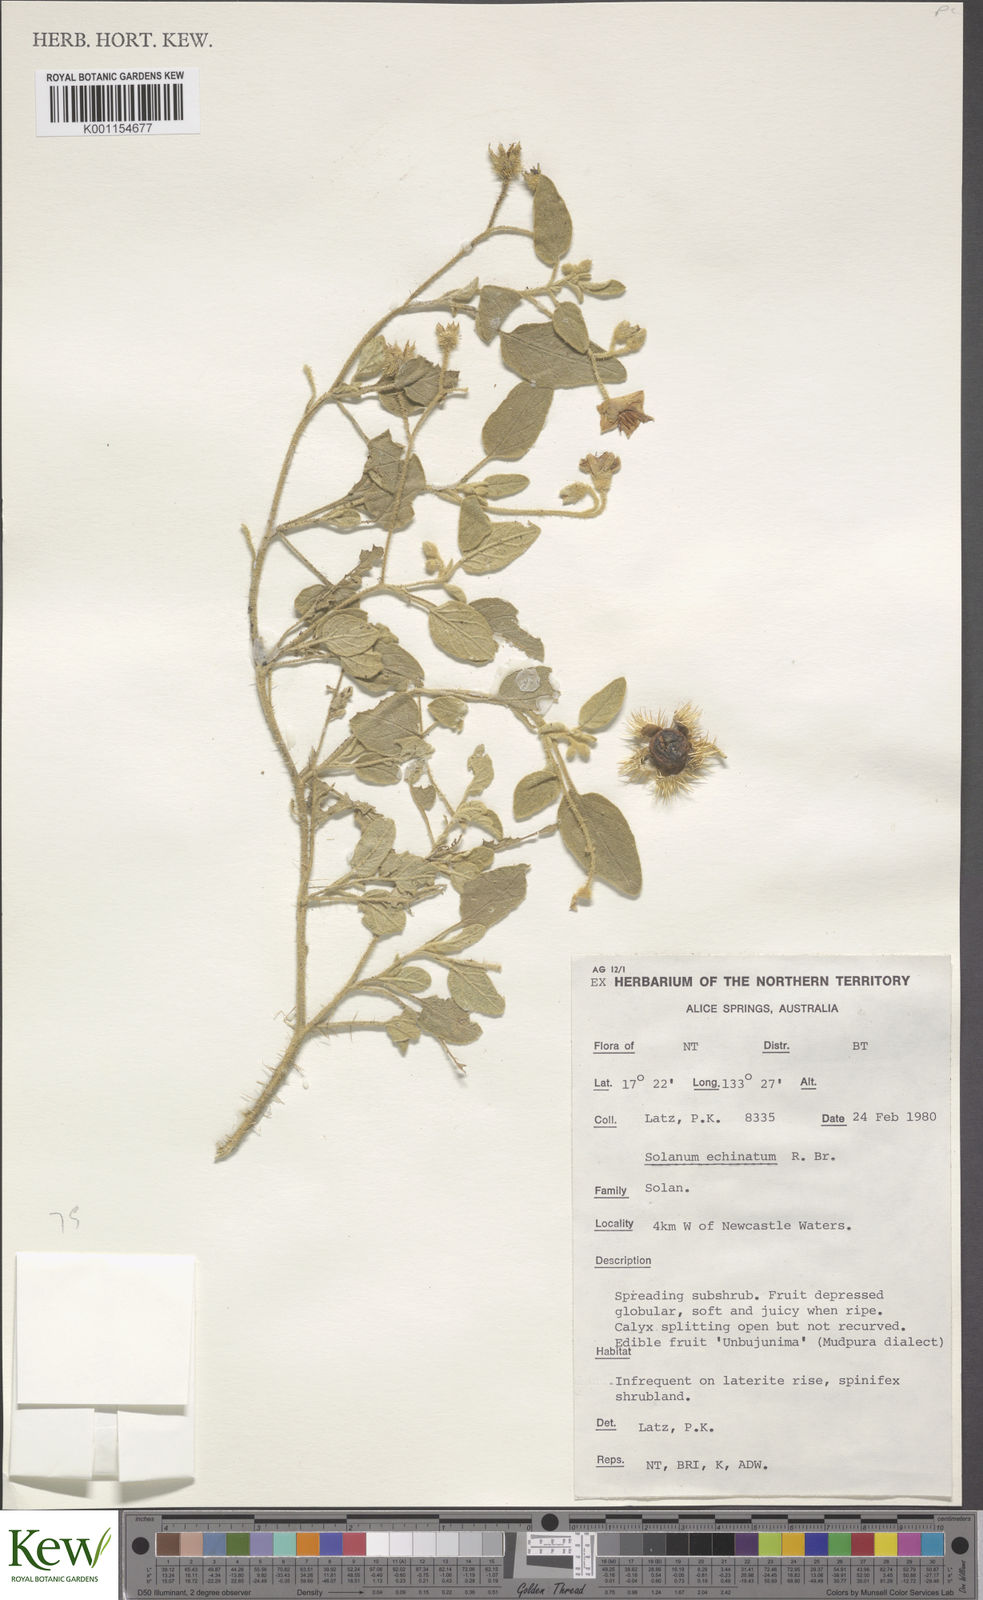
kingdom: Plantae
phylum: Tracheophyta
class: Magnoliopsida
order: Solanales
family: Solanaceae
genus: Solanum
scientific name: Solanum echinatum
